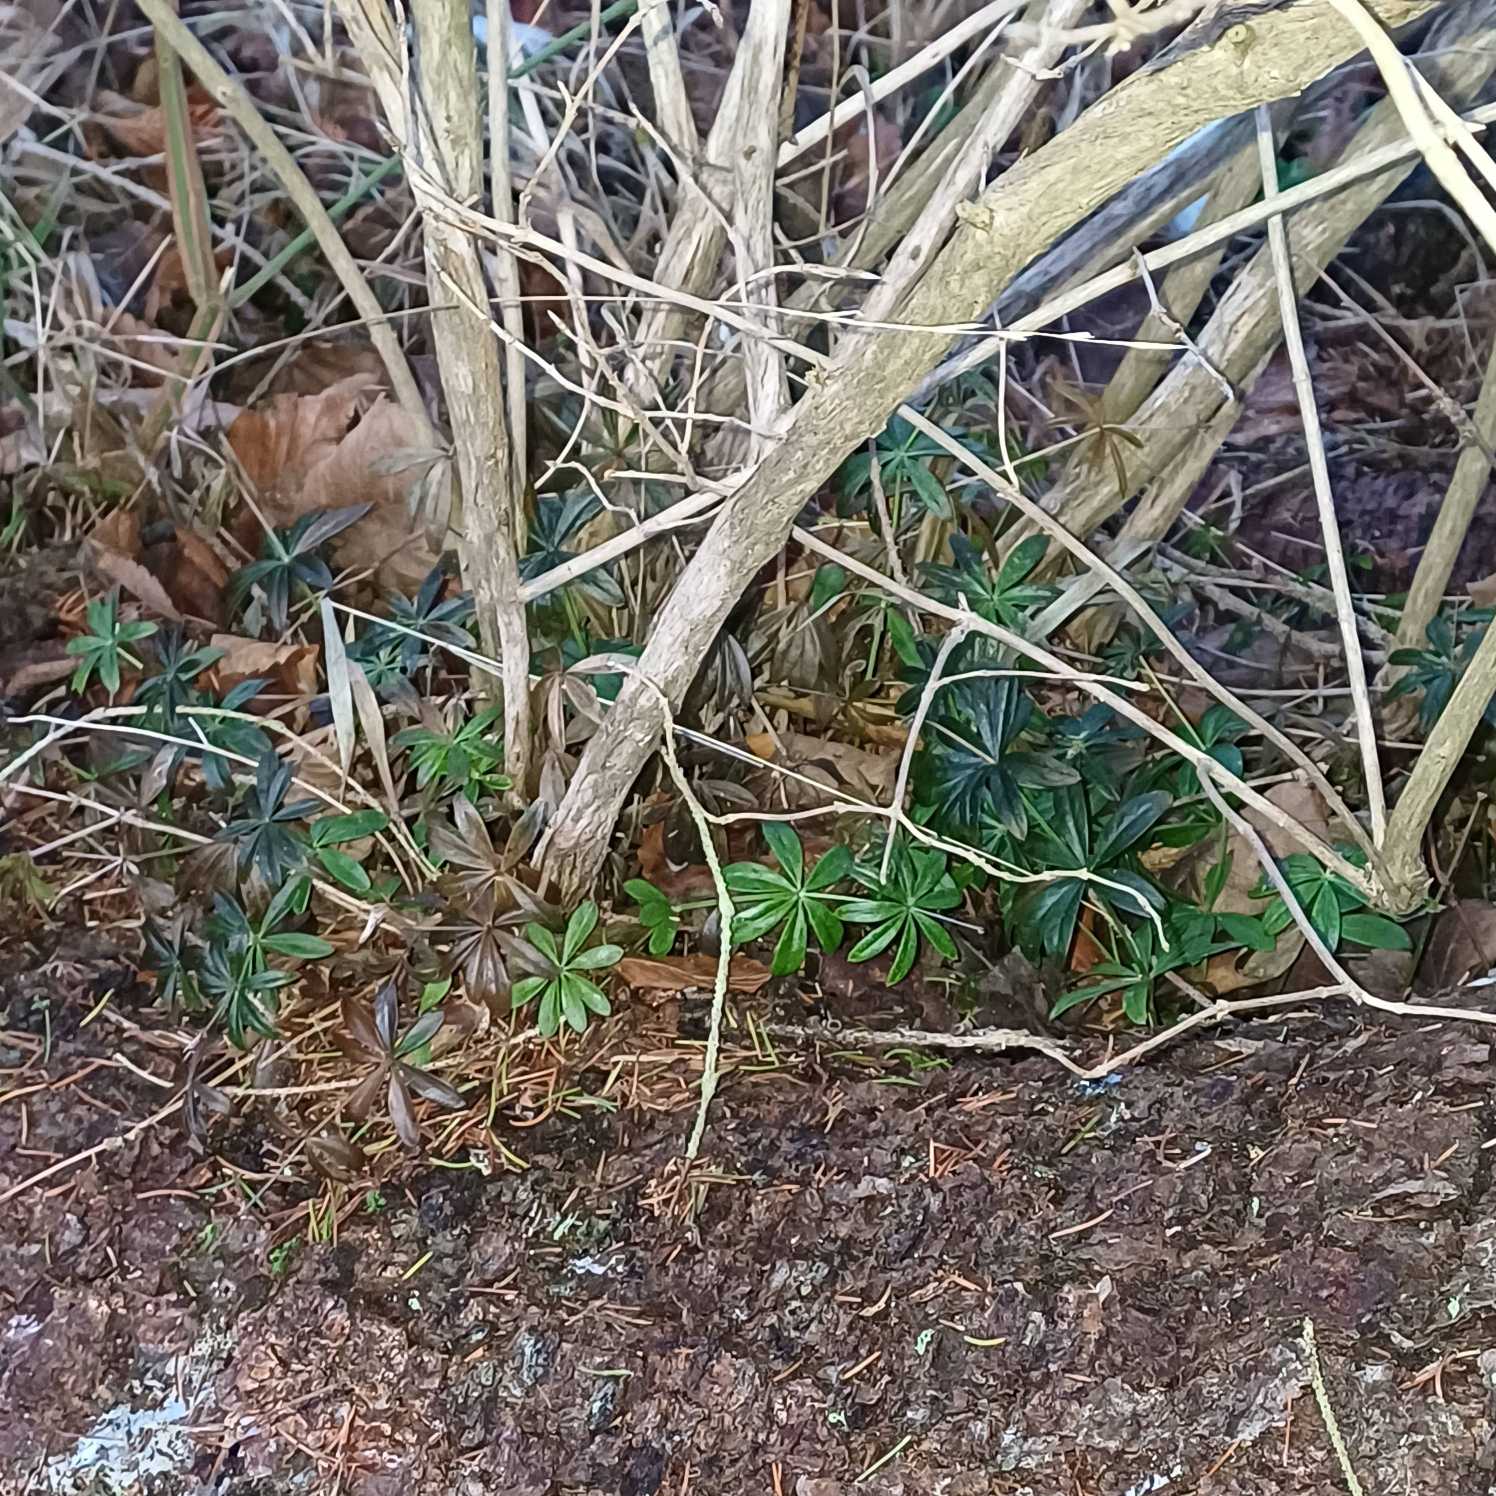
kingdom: Plantae
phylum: Tracheophyta
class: Magnoliopsida
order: Gentianales
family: Rubiaceae
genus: Galium
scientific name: Galium odoratum
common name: Skovmærke
